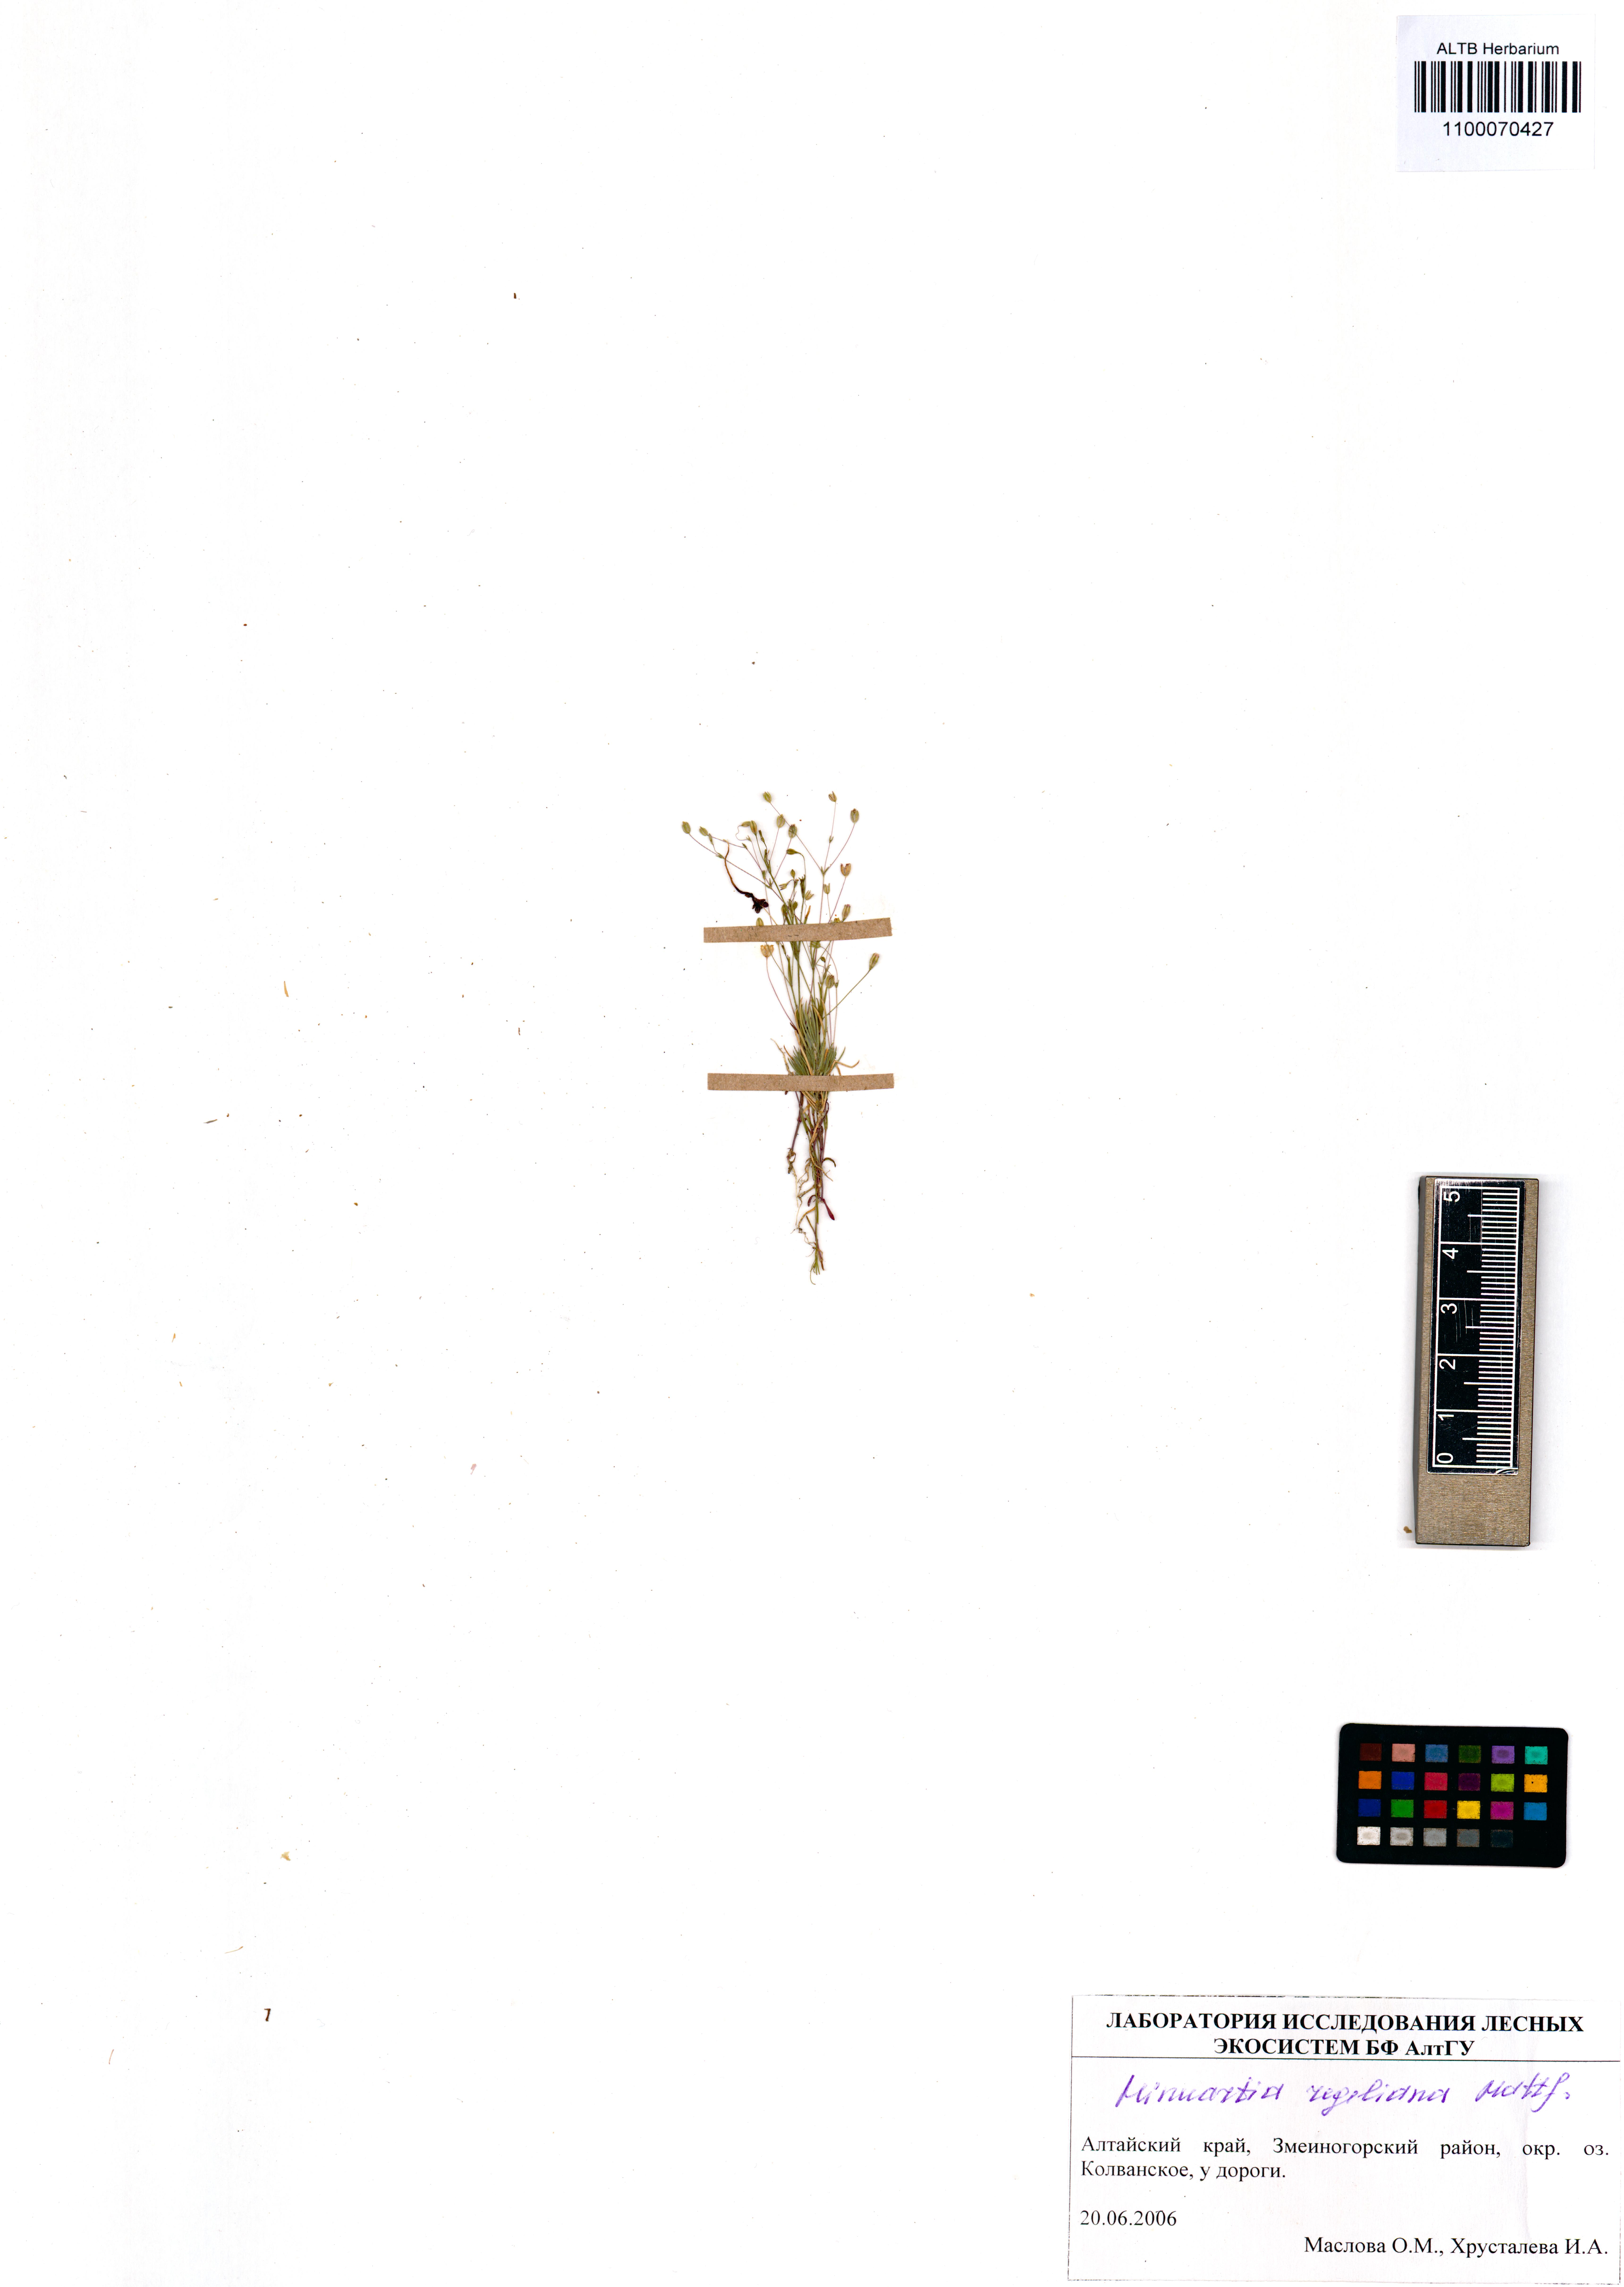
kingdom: Plantae
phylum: Tracheophyta
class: Magnoliopsida
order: Caryophyllales
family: Caryophyllaceae
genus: Sabulina
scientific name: Sabulina regeliana
